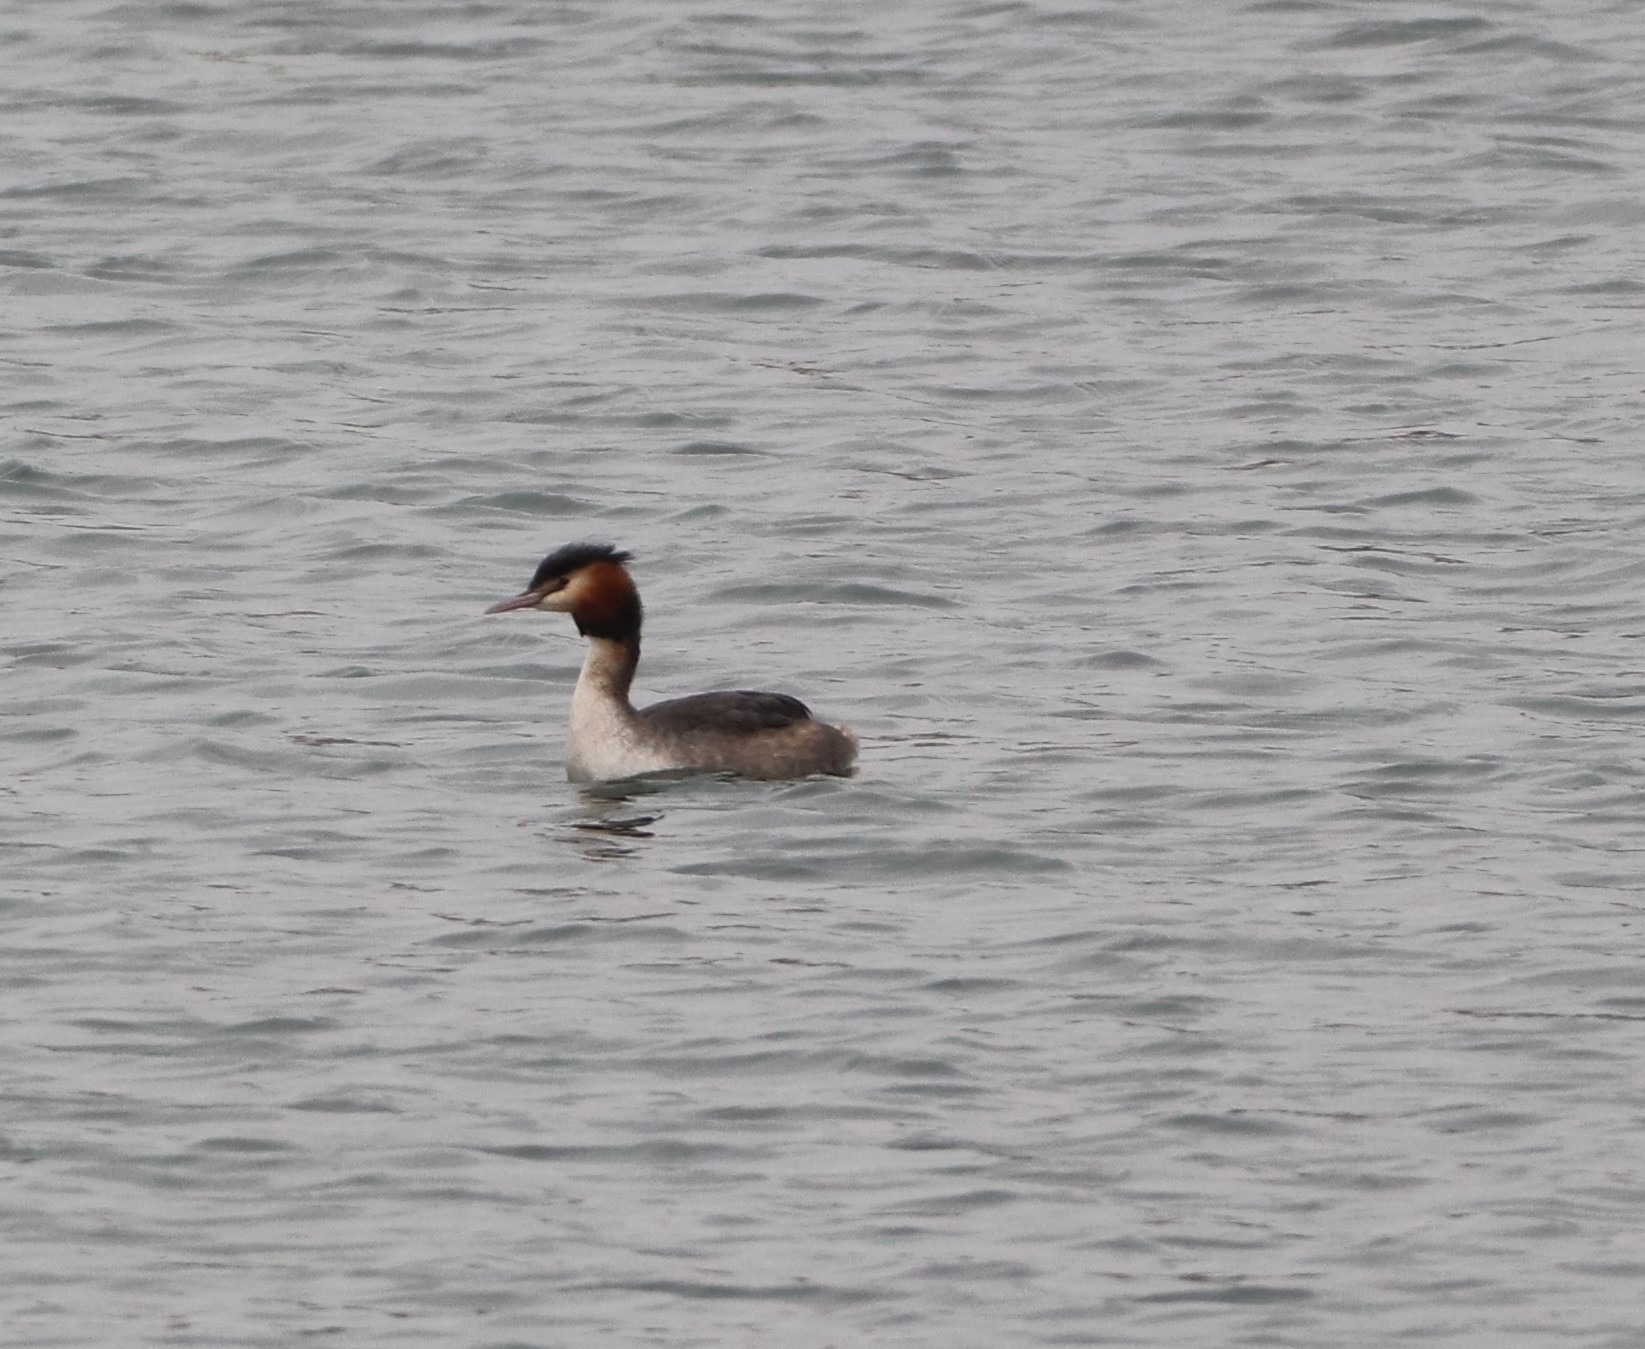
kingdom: Animalia
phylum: Chordata
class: Aves
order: Podicipediformes
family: Podicipedidae
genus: Podiceps
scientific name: Podiceps cristatus
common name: Toppet lappedykker
